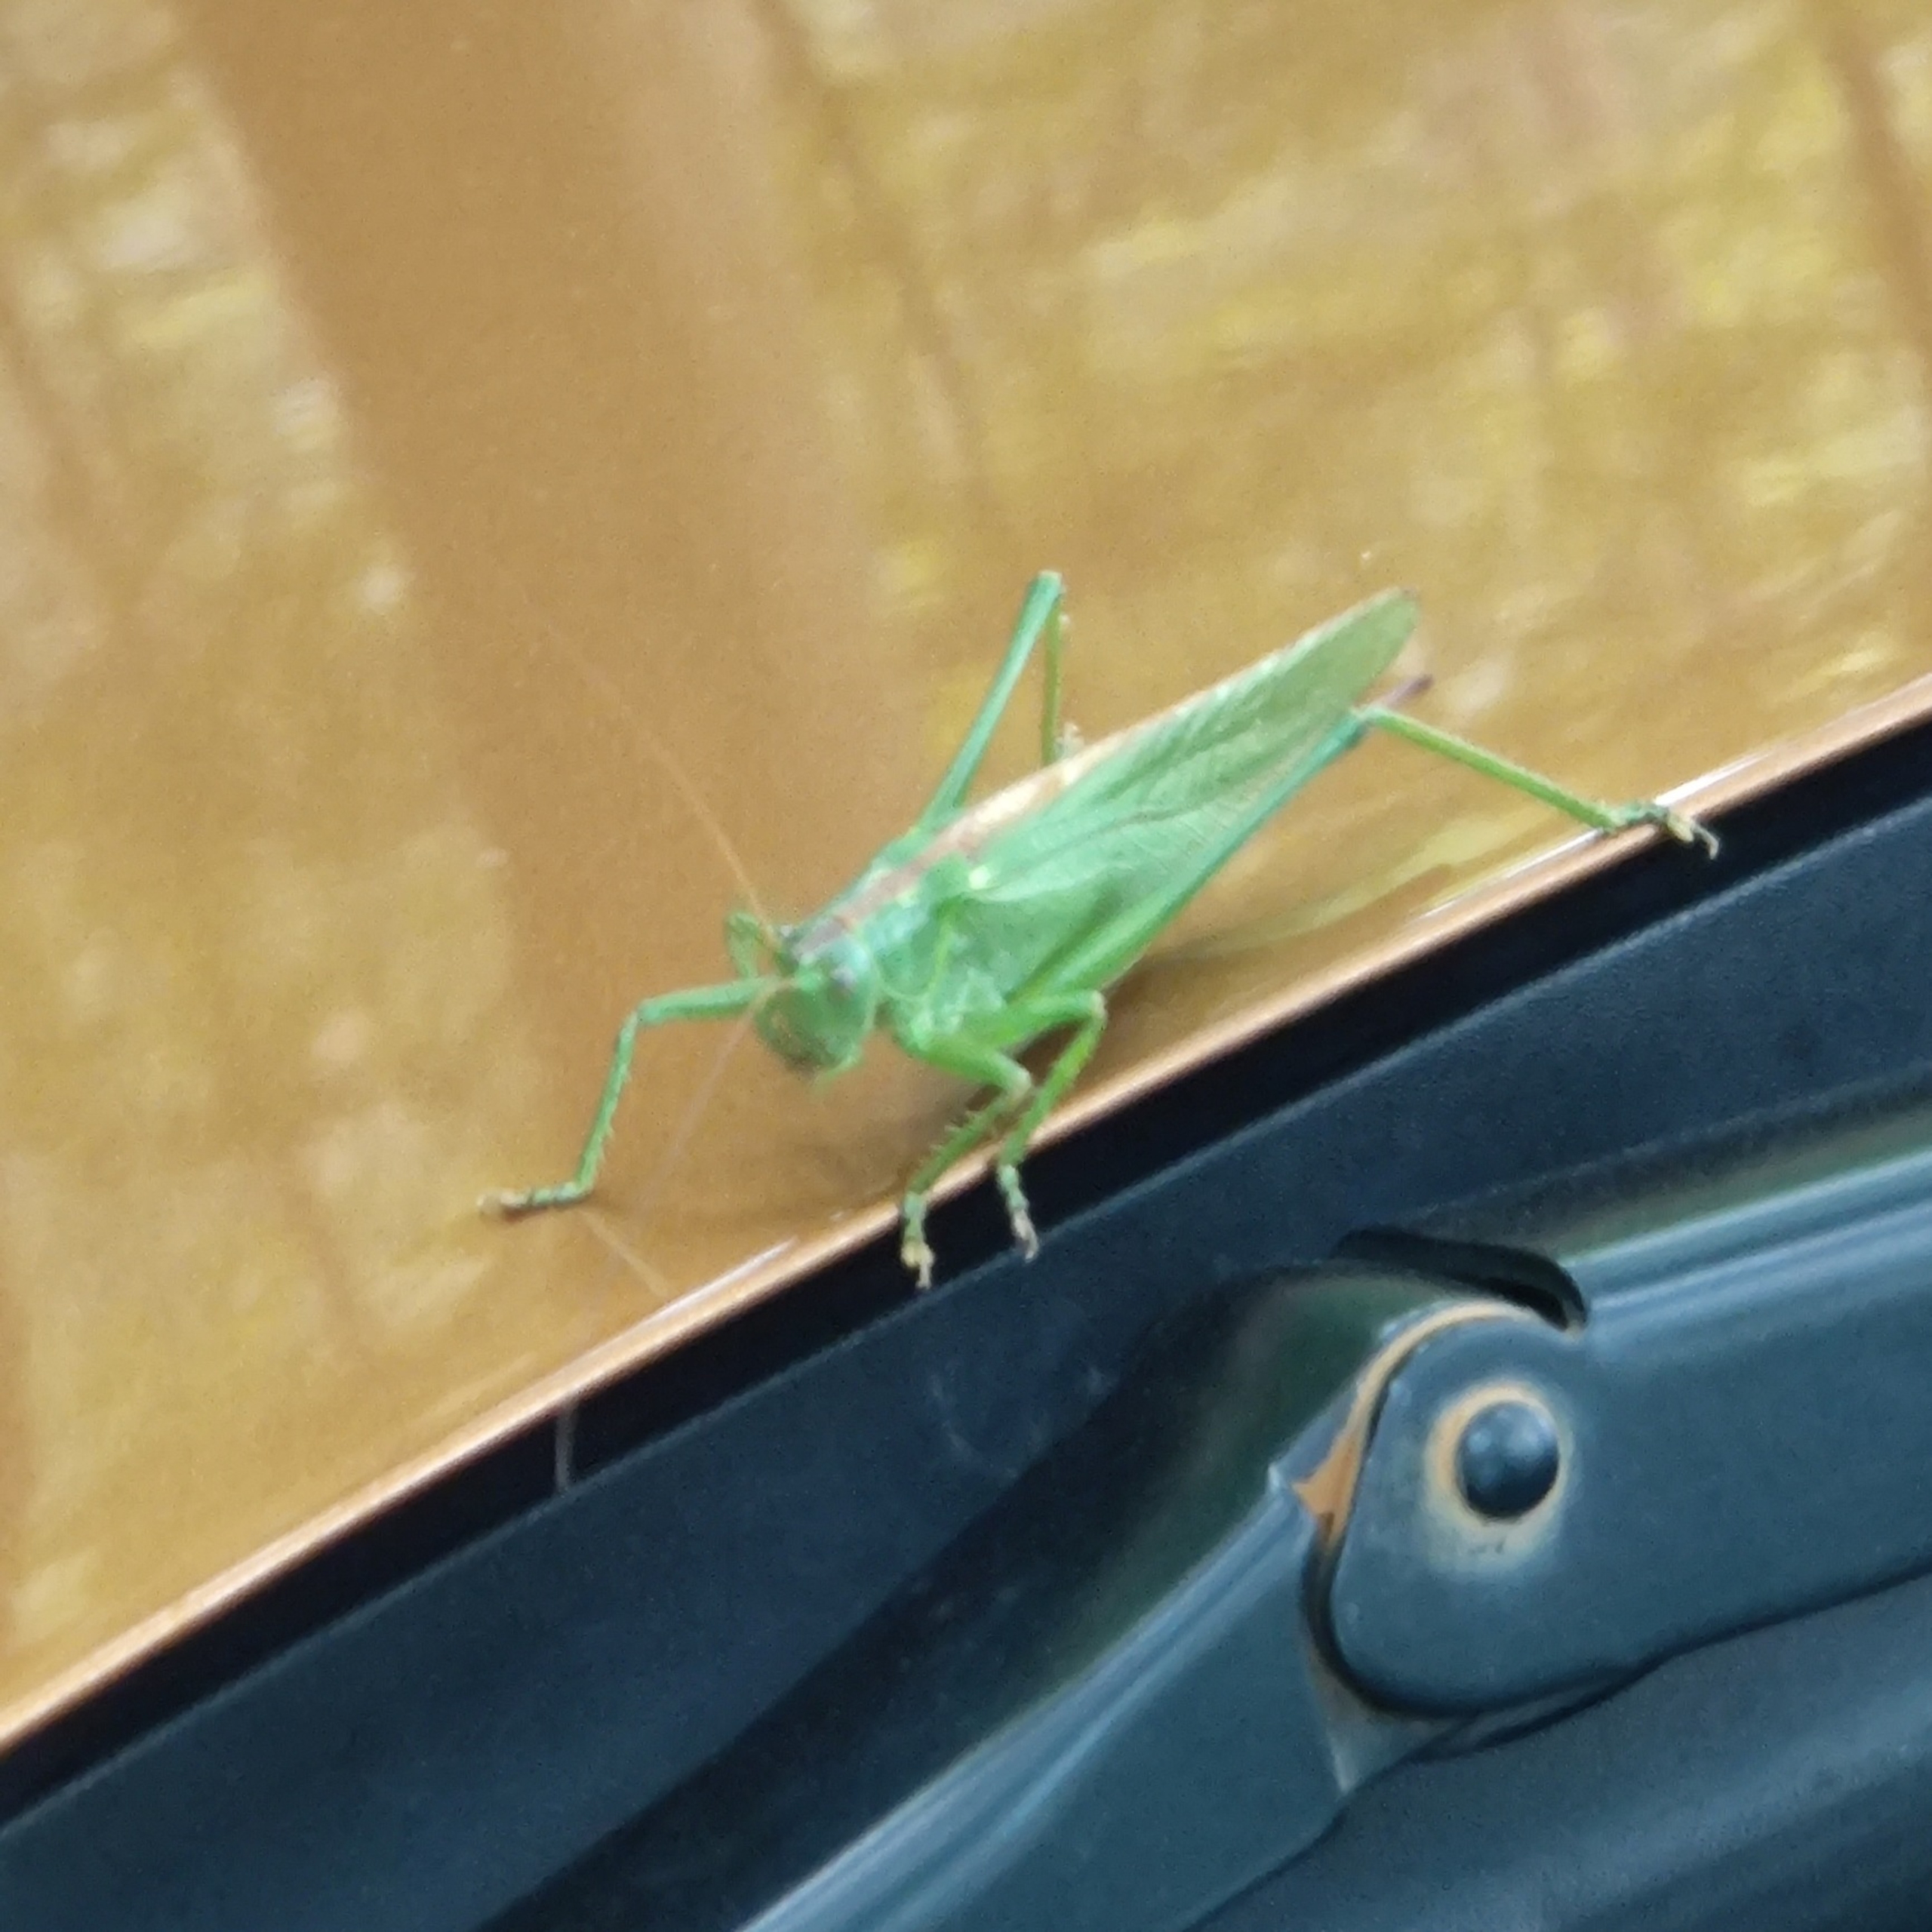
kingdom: Animalia
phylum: Arthropoda
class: Insecta
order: Orthoptera
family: Tettigoniidae
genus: Tettigonia
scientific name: Tettigonia viridissima
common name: Stor grøn løvgræshoppe
